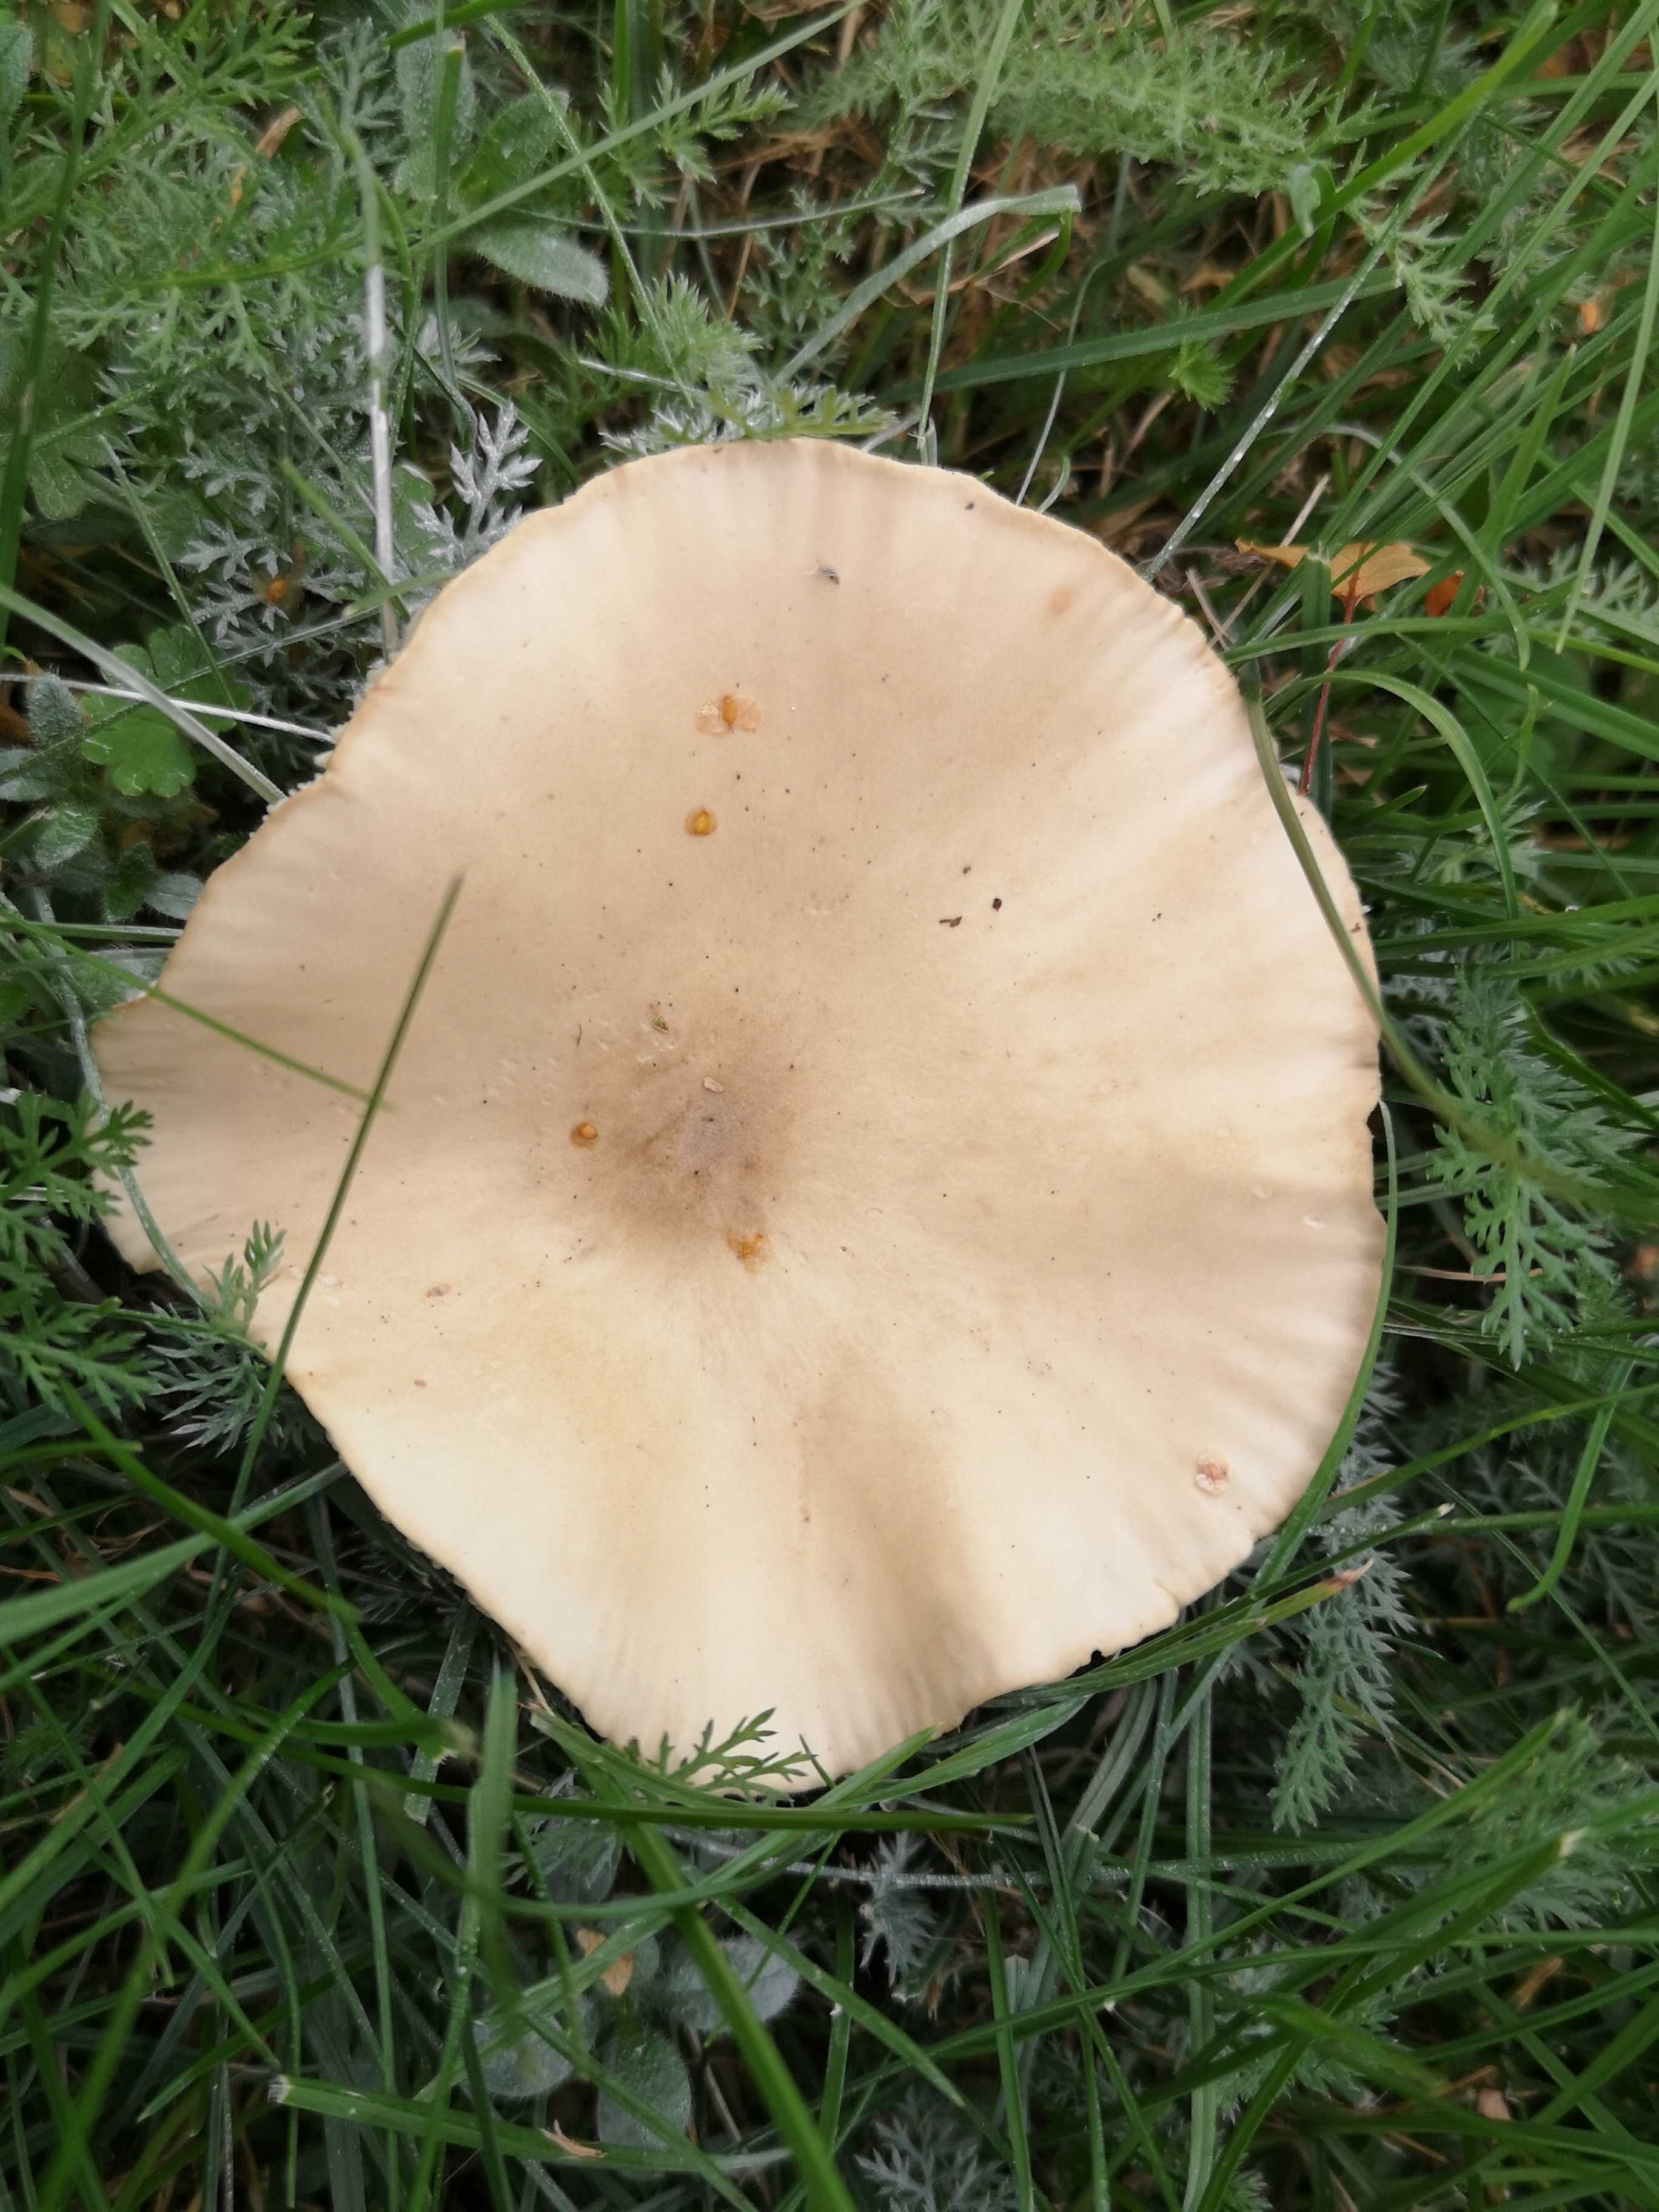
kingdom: Fungi
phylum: Basidiomycota
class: Agaricomycetes
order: Agaricales
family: Tricholomataceae
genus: Melanoleuca
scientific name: Melanoleuca
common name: munkehat
